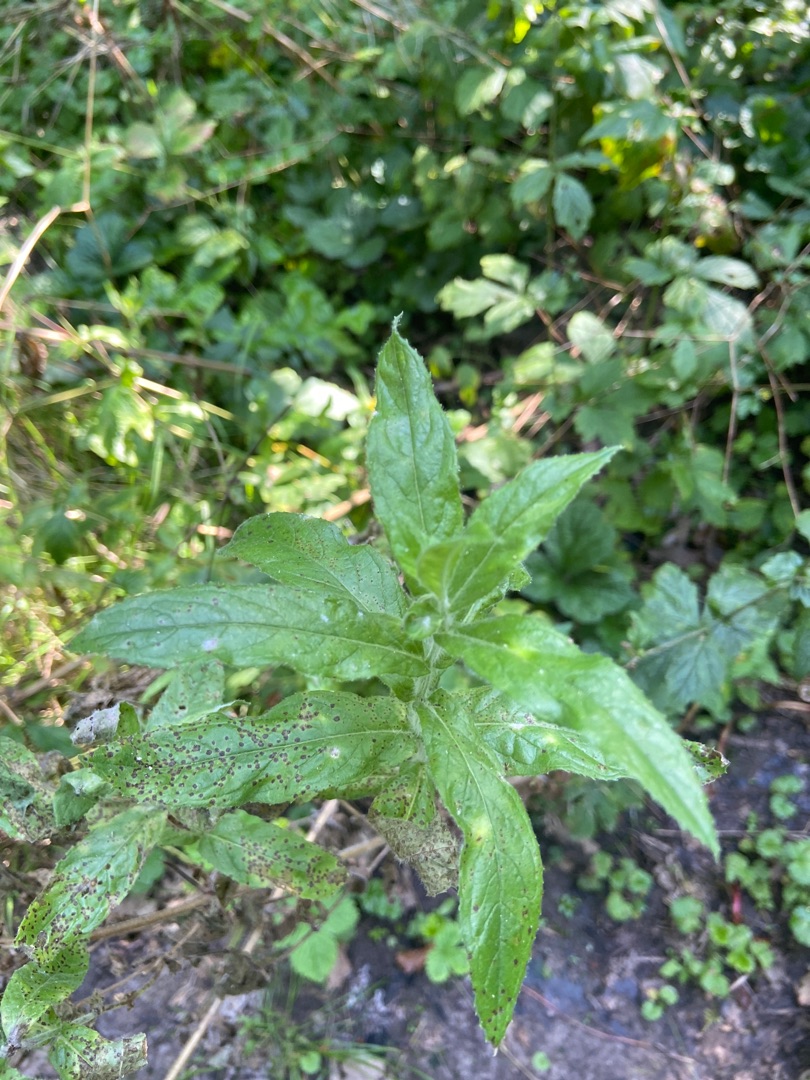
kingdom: Plantae
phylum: Tracheophyta
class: Magnoliopsida
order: Myrtales
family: Onagraceae
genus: Epilobium
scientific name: Epilobium hirsutum
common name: Lådden dueurt
